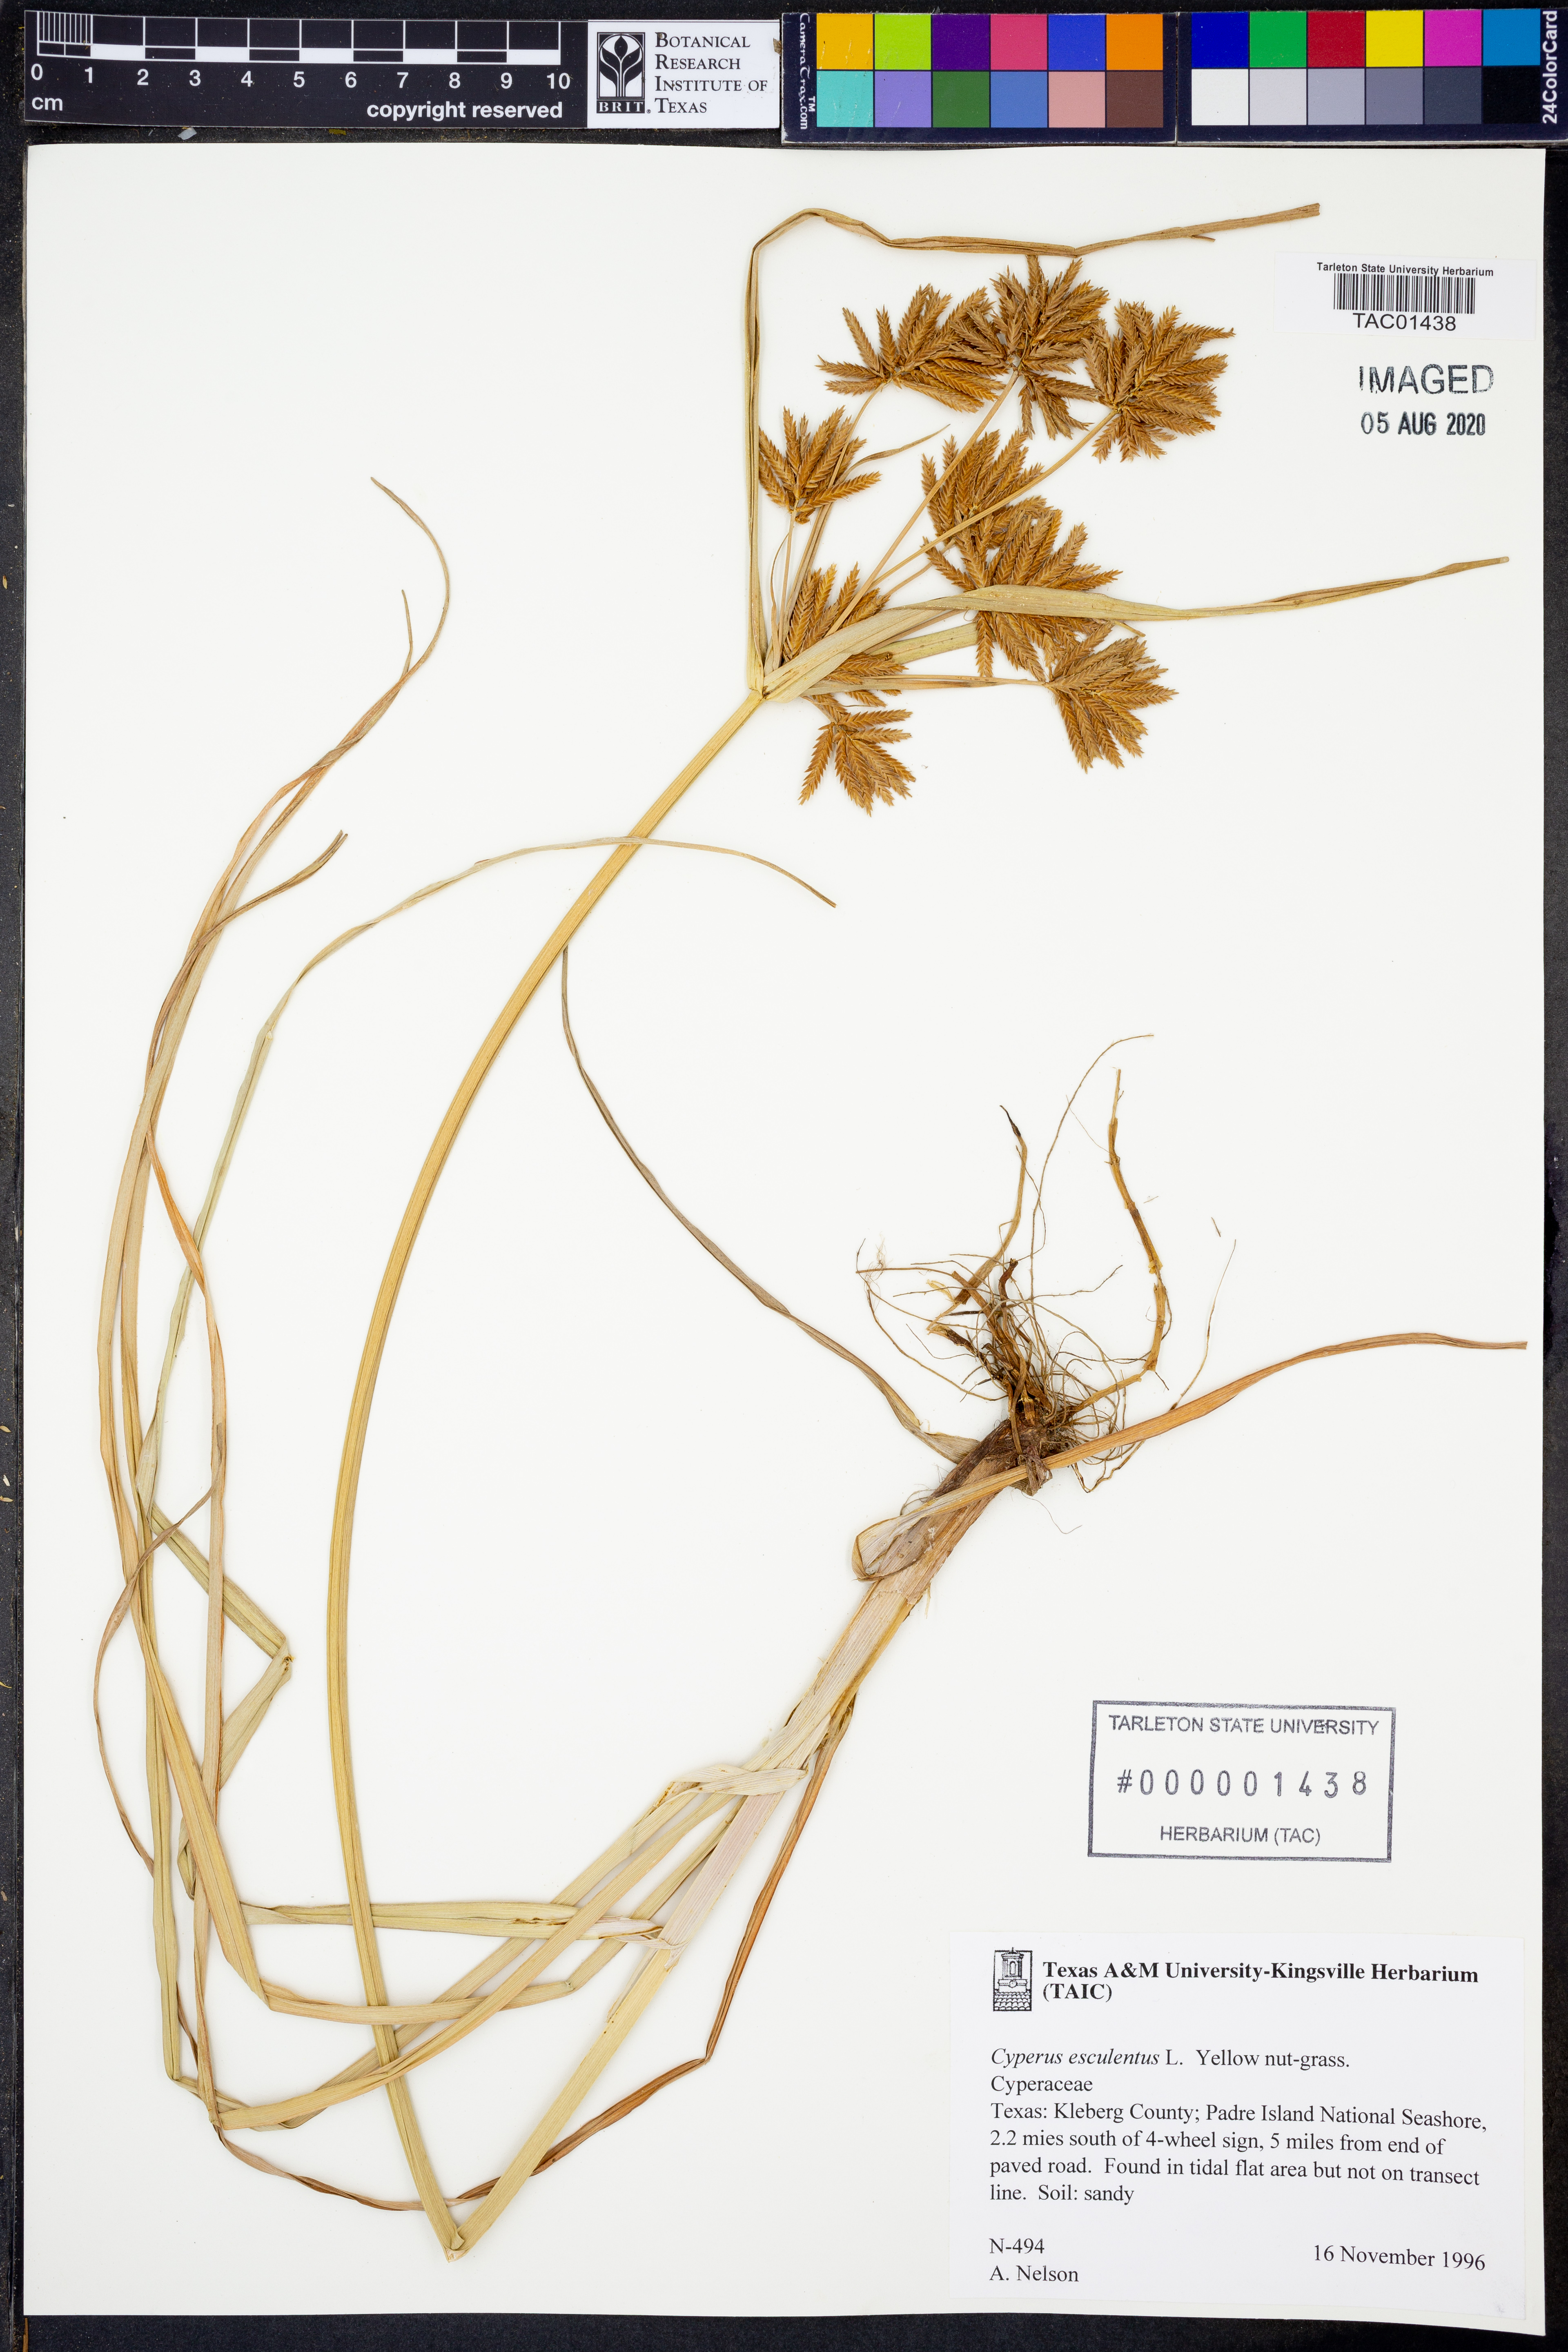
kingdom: Plantae
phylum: Tracheophyta
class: Liliopsida
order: Poales
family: Cyperaceae
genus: Cyperus
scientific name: Cyperus esculentus
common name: Yellow nutsedge
